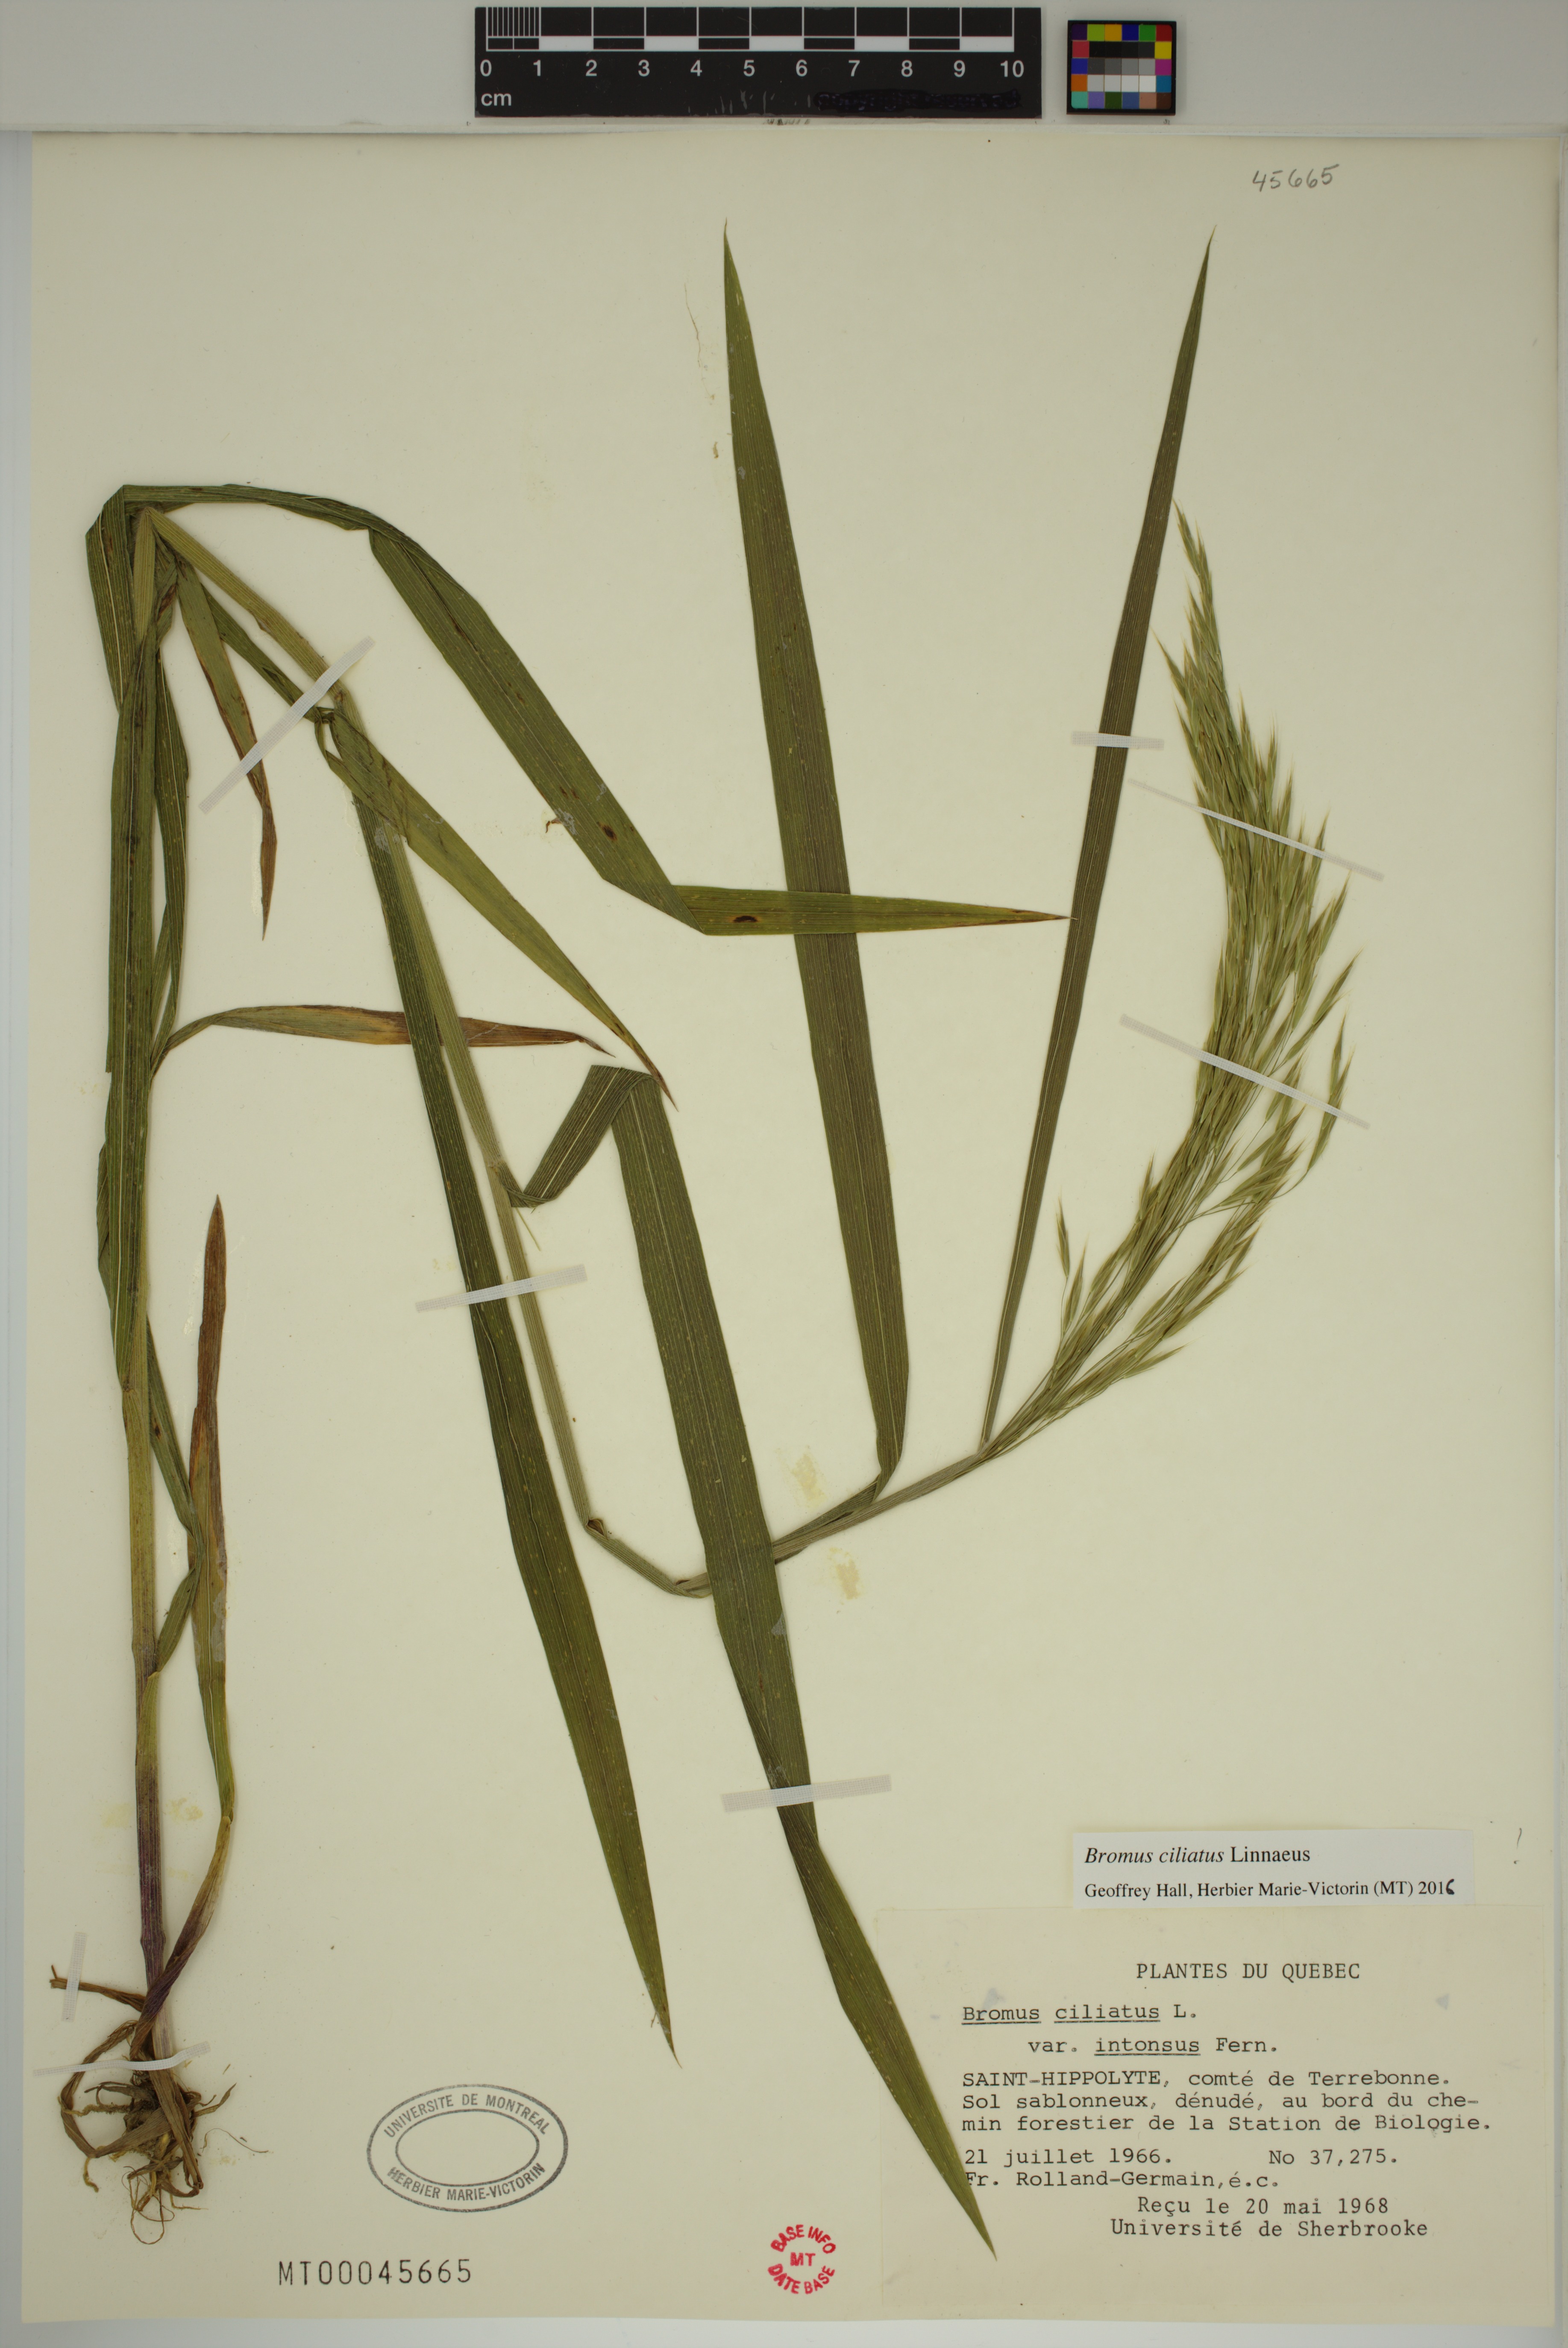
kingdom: Plantae
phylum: Tracheophyta
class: Liliopsida
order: Poales
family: Poaceae
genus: Bromus
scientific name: Bromus ciliatus
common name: Fringe brome
